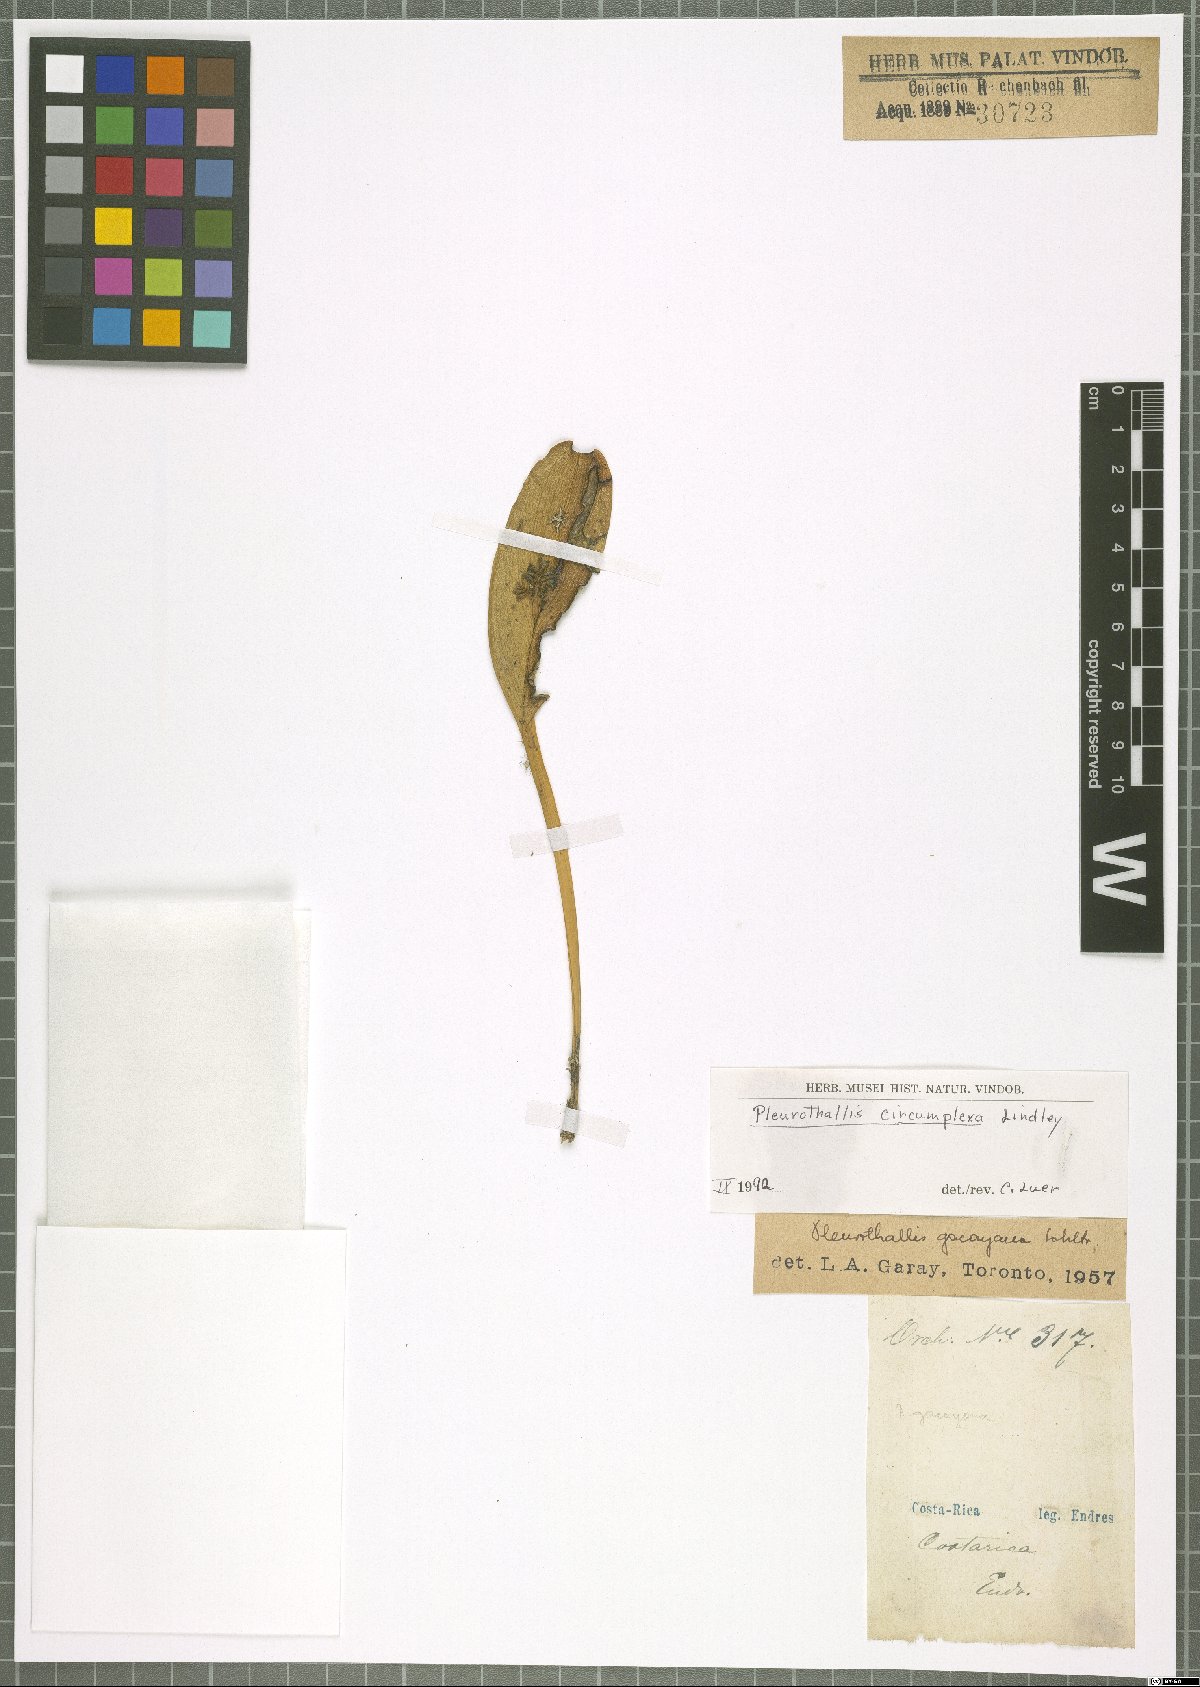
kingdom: Plantae
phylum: Tracheophyta
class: Liliopsida
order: Asparagales
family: Orchidaceae
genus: Acianthera
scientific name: Acianthera circumplexa
